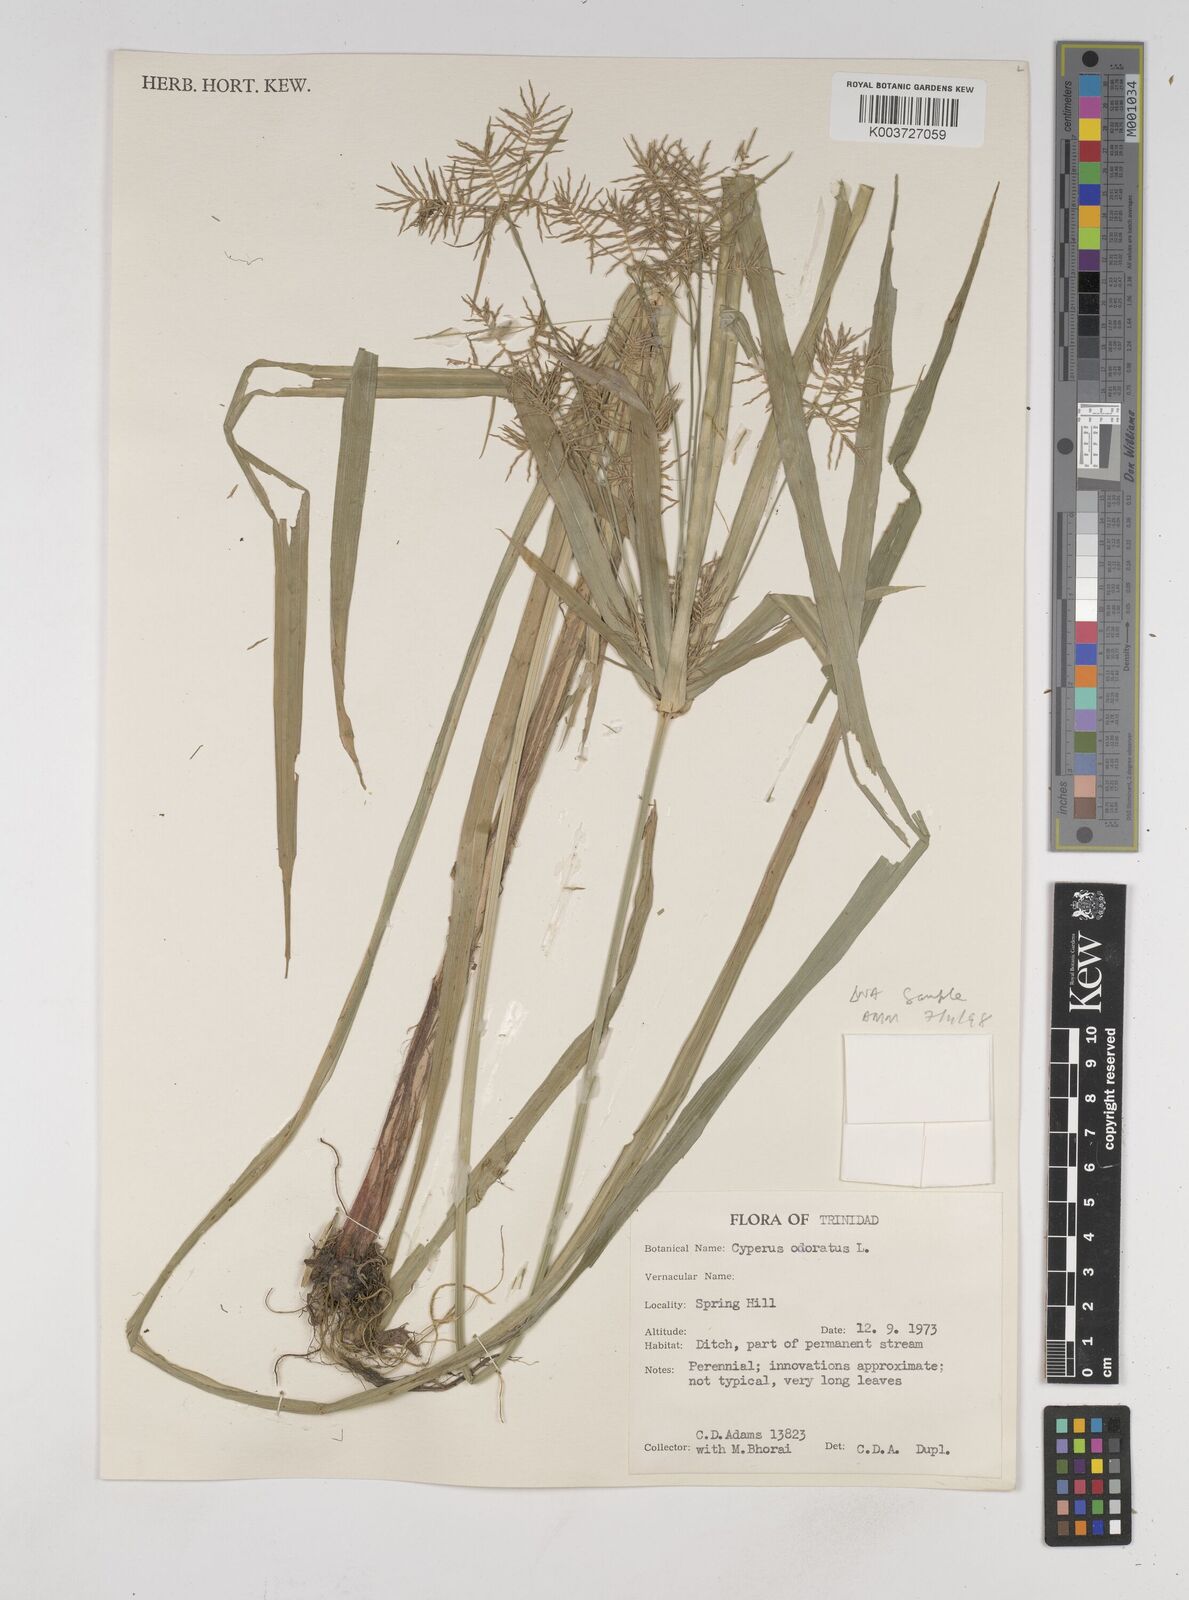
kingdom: Plantae
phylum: Tracheophyta
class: Liliopsida
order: Poales
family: Cyperaceae
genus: Cyperus
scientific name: Cyperus odoratus
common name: Fragrant flatsedge
